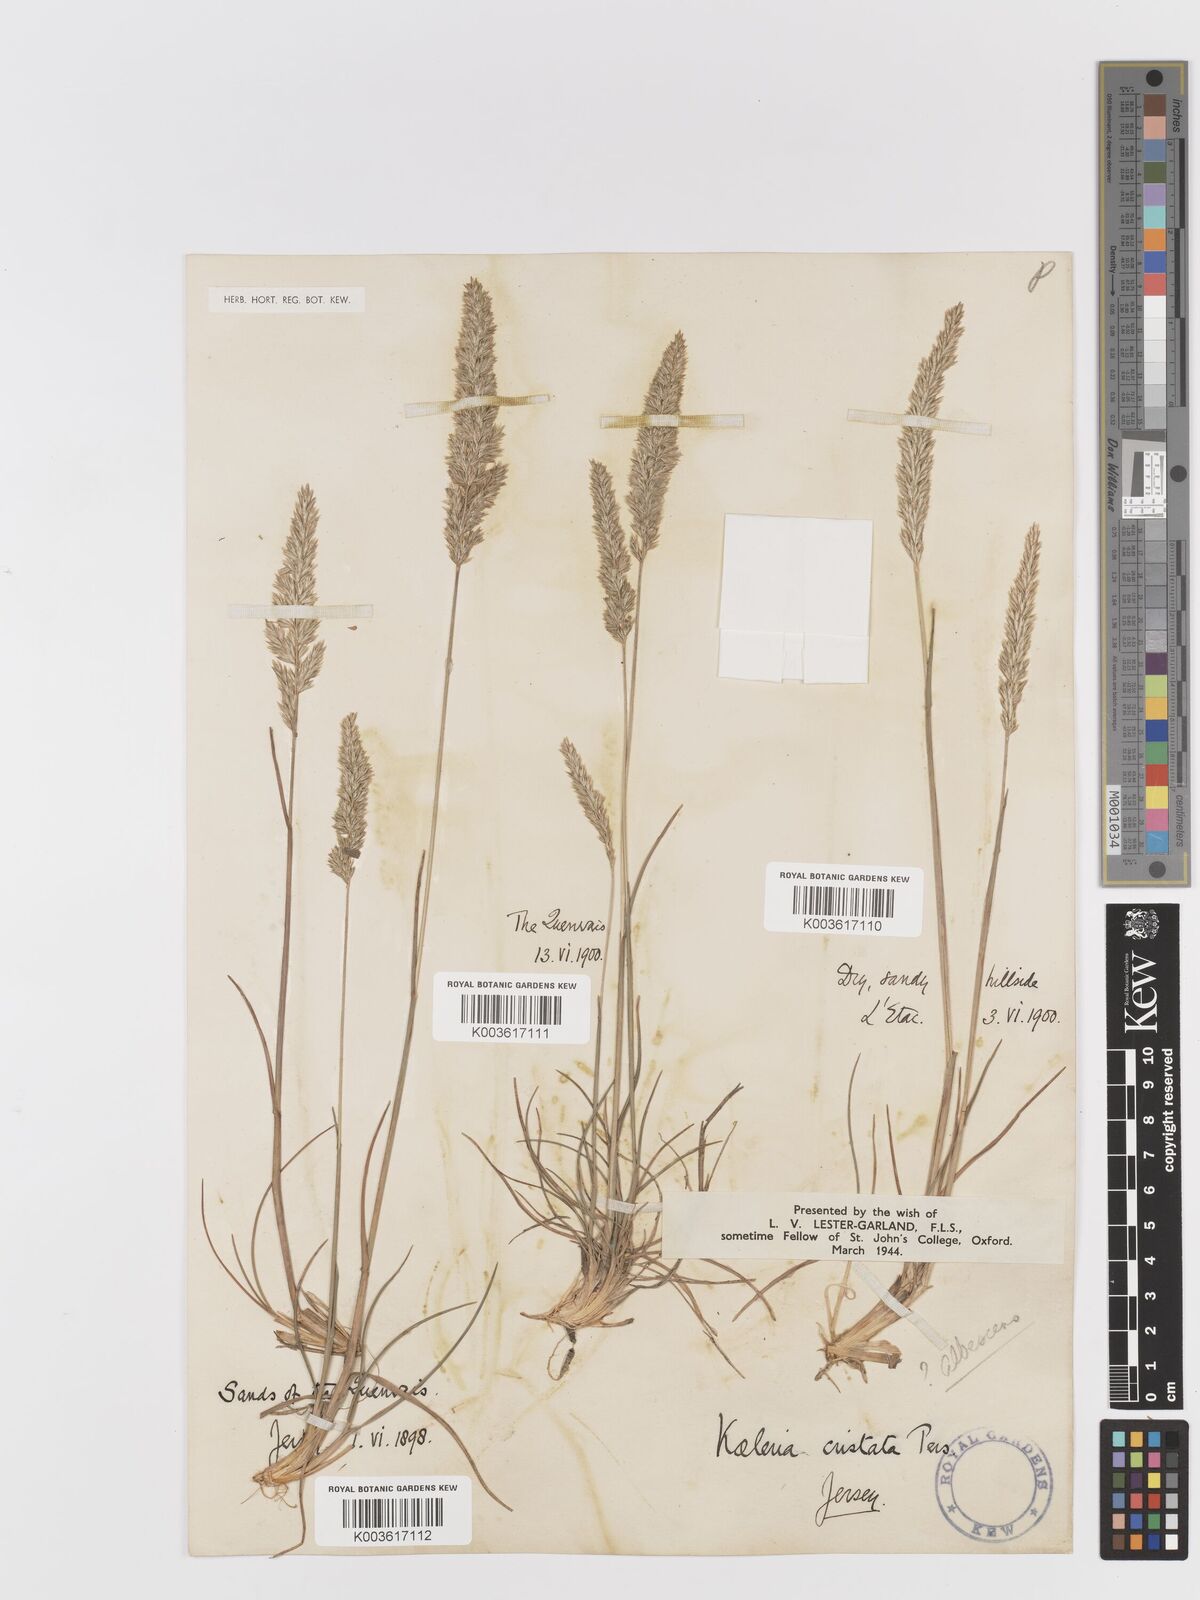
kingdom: Plantae
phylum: Tracheophyta
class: Liliopsida
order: Poales
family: Poaceae
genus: Koeleria
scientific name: Koeleria macrantha
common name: Crested hair-grass
